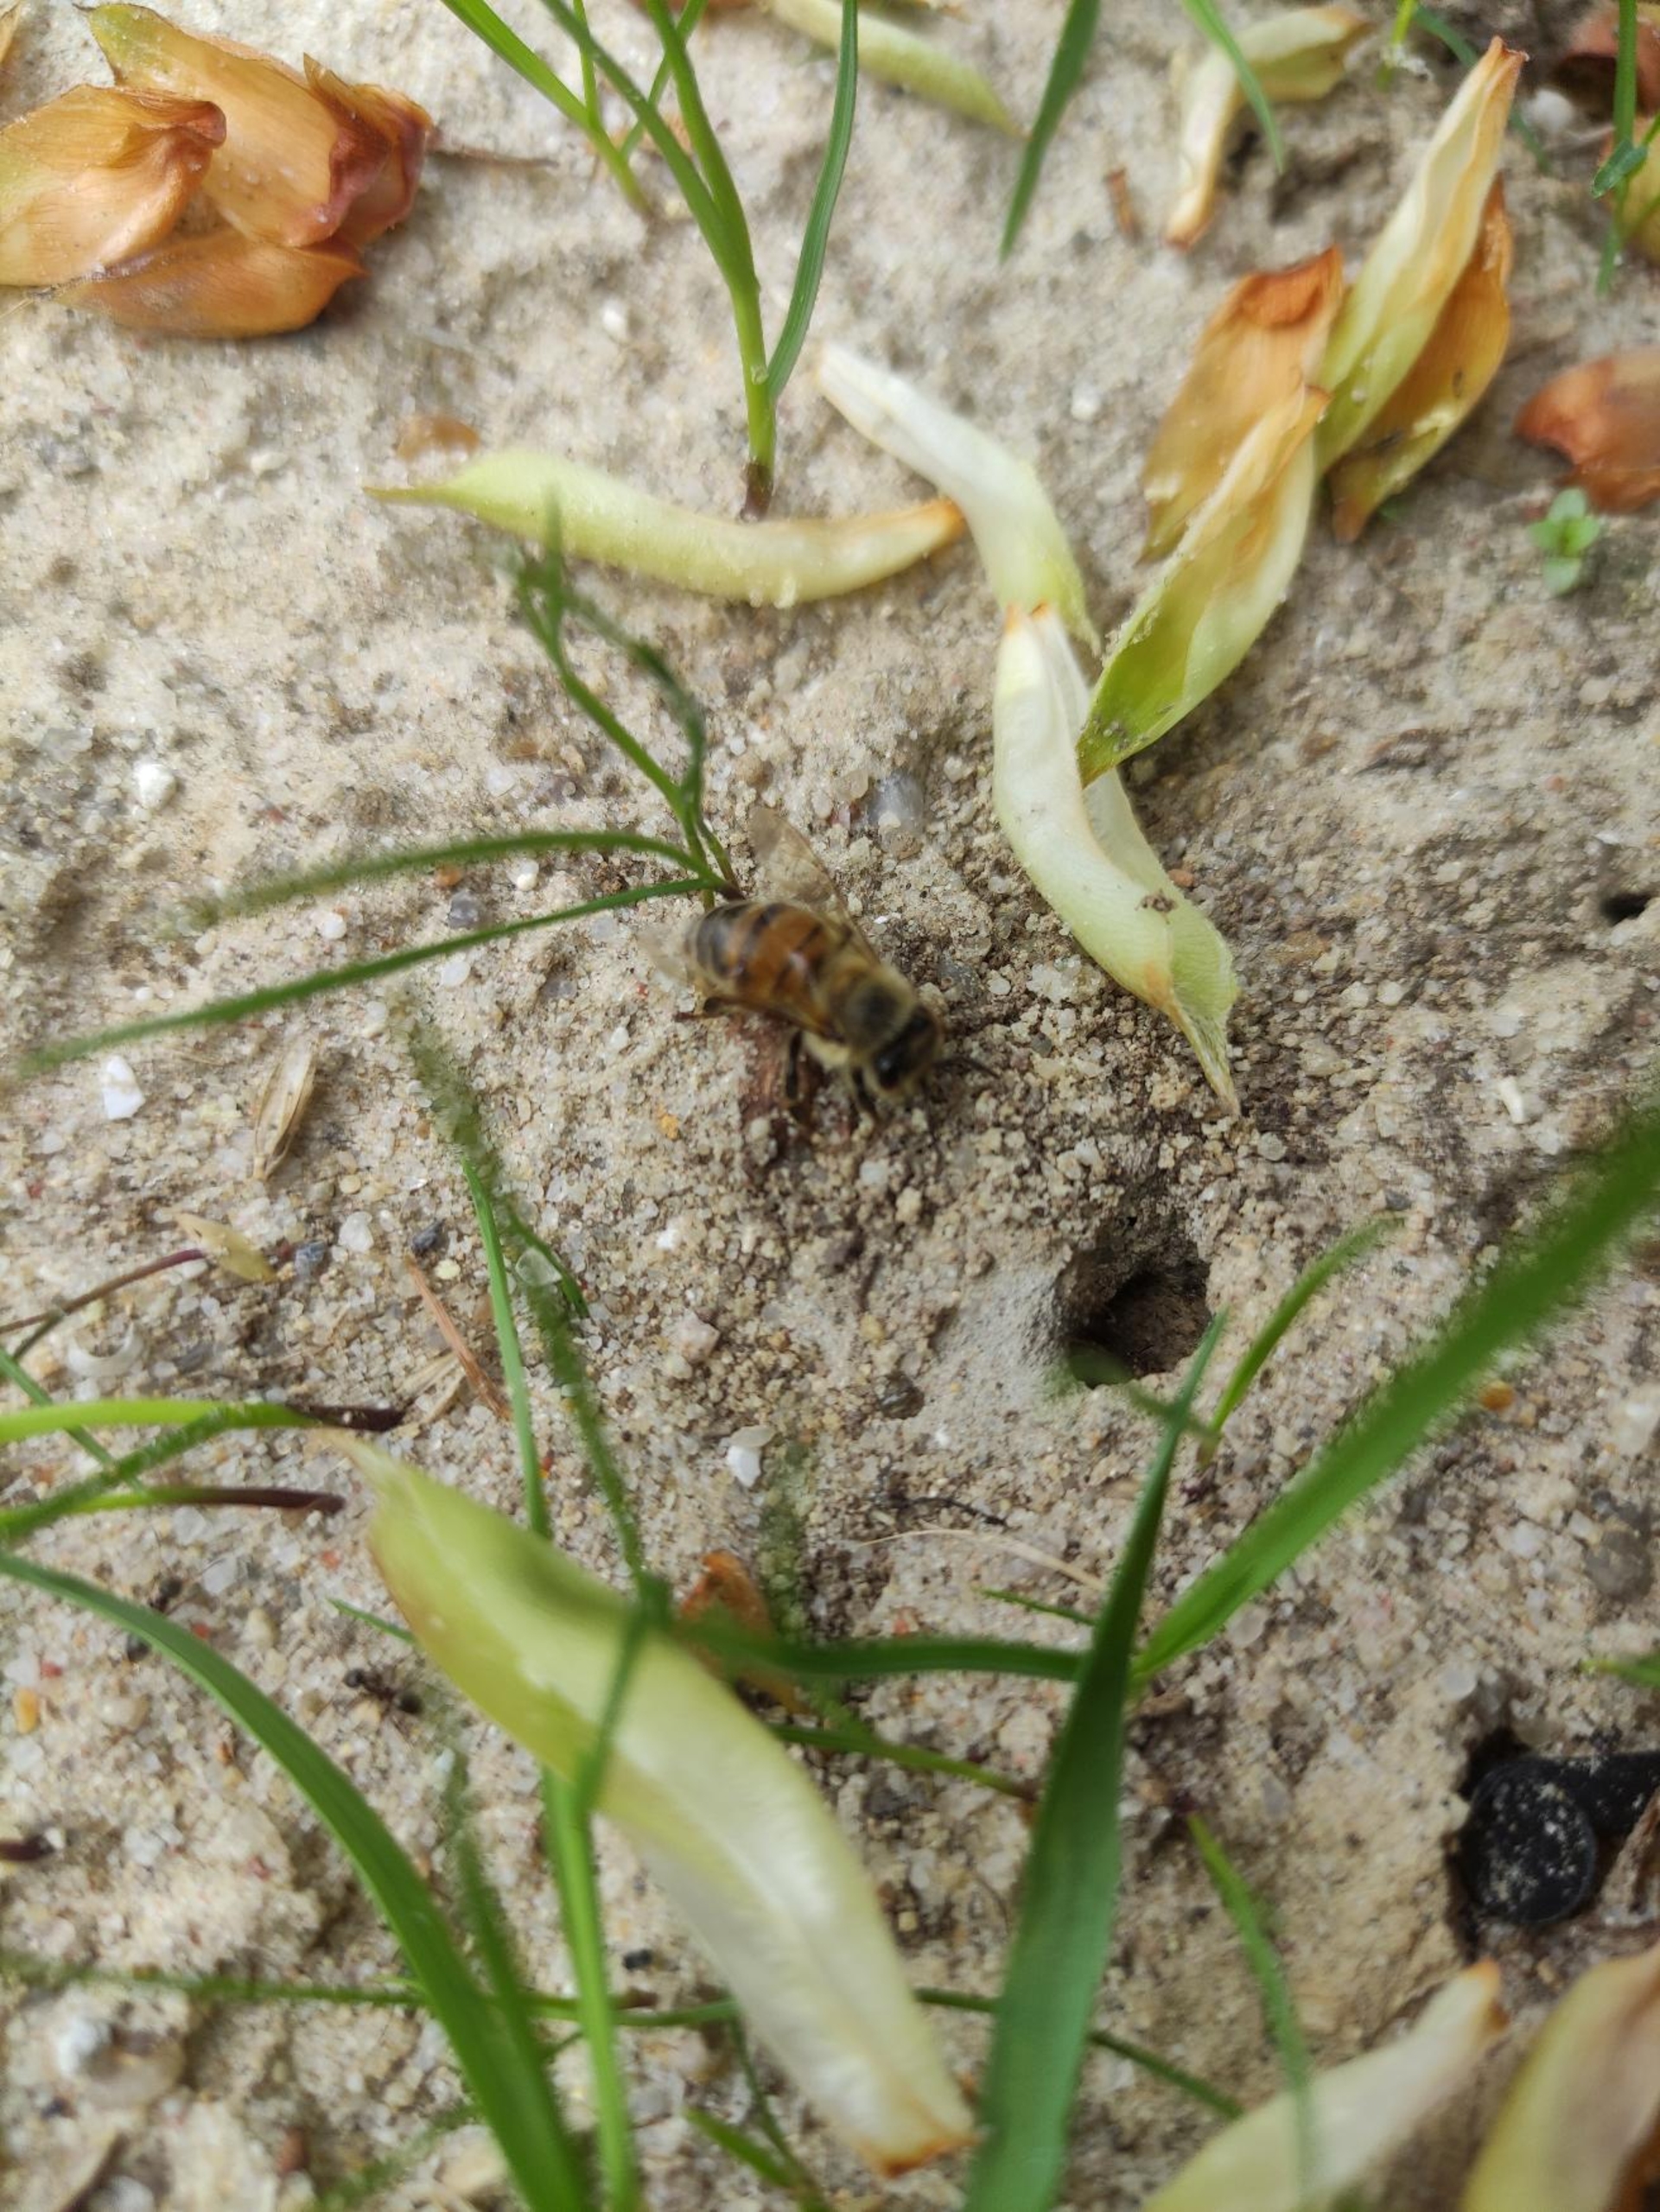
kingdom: Animalia
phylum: Arthropoda
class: Insecta
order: Hymenoptera
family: Apidae
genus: Apis
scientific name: Apis mellifera
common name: Honningbi
